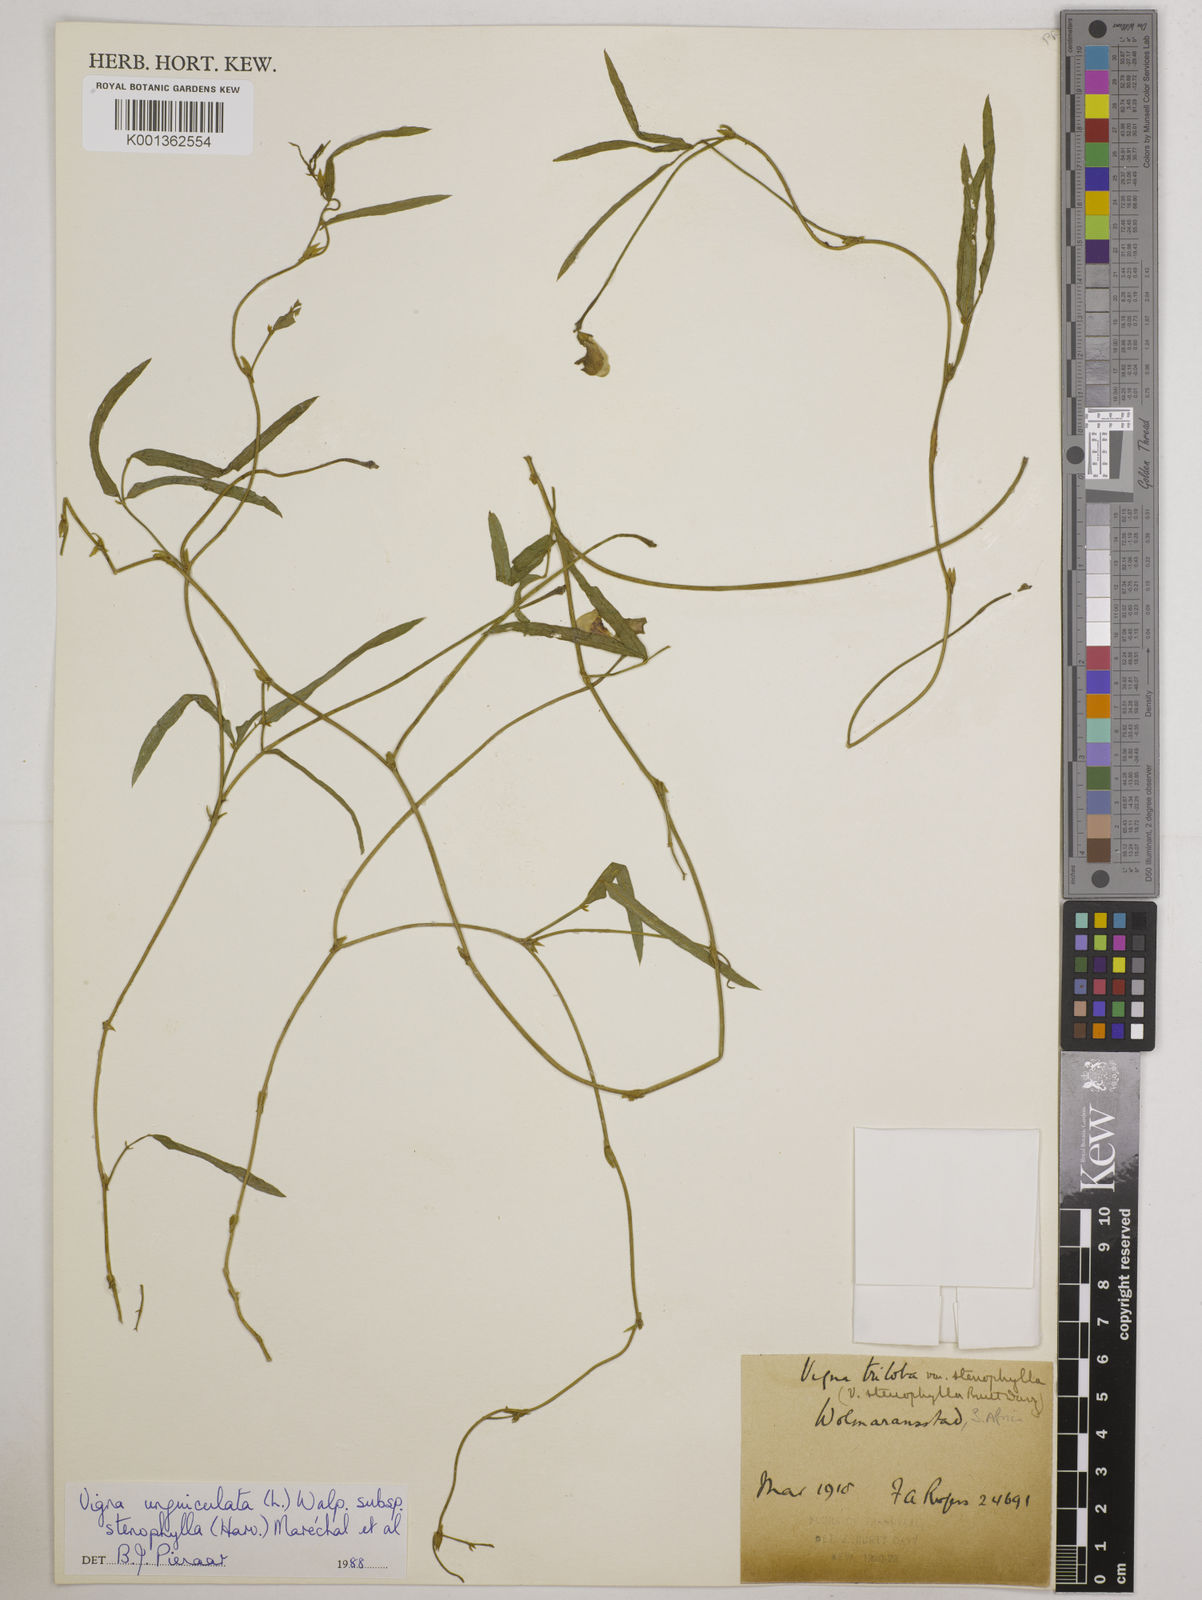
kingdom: Plantae
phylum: Tracheophyta
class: Magnoliopsida
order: Fabales
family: Fabaceae
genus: Vigna
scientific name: Vigna
